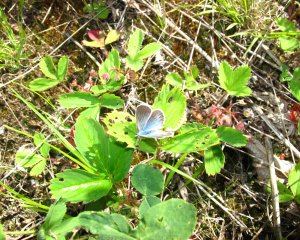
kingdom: Animalia
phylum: Arthropoda
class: Insecta
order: Lepidoptera
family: Lycaenidae
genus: Glaucopsyche
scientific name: Glaucopsyche lygdamus
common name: Silvery Blue
